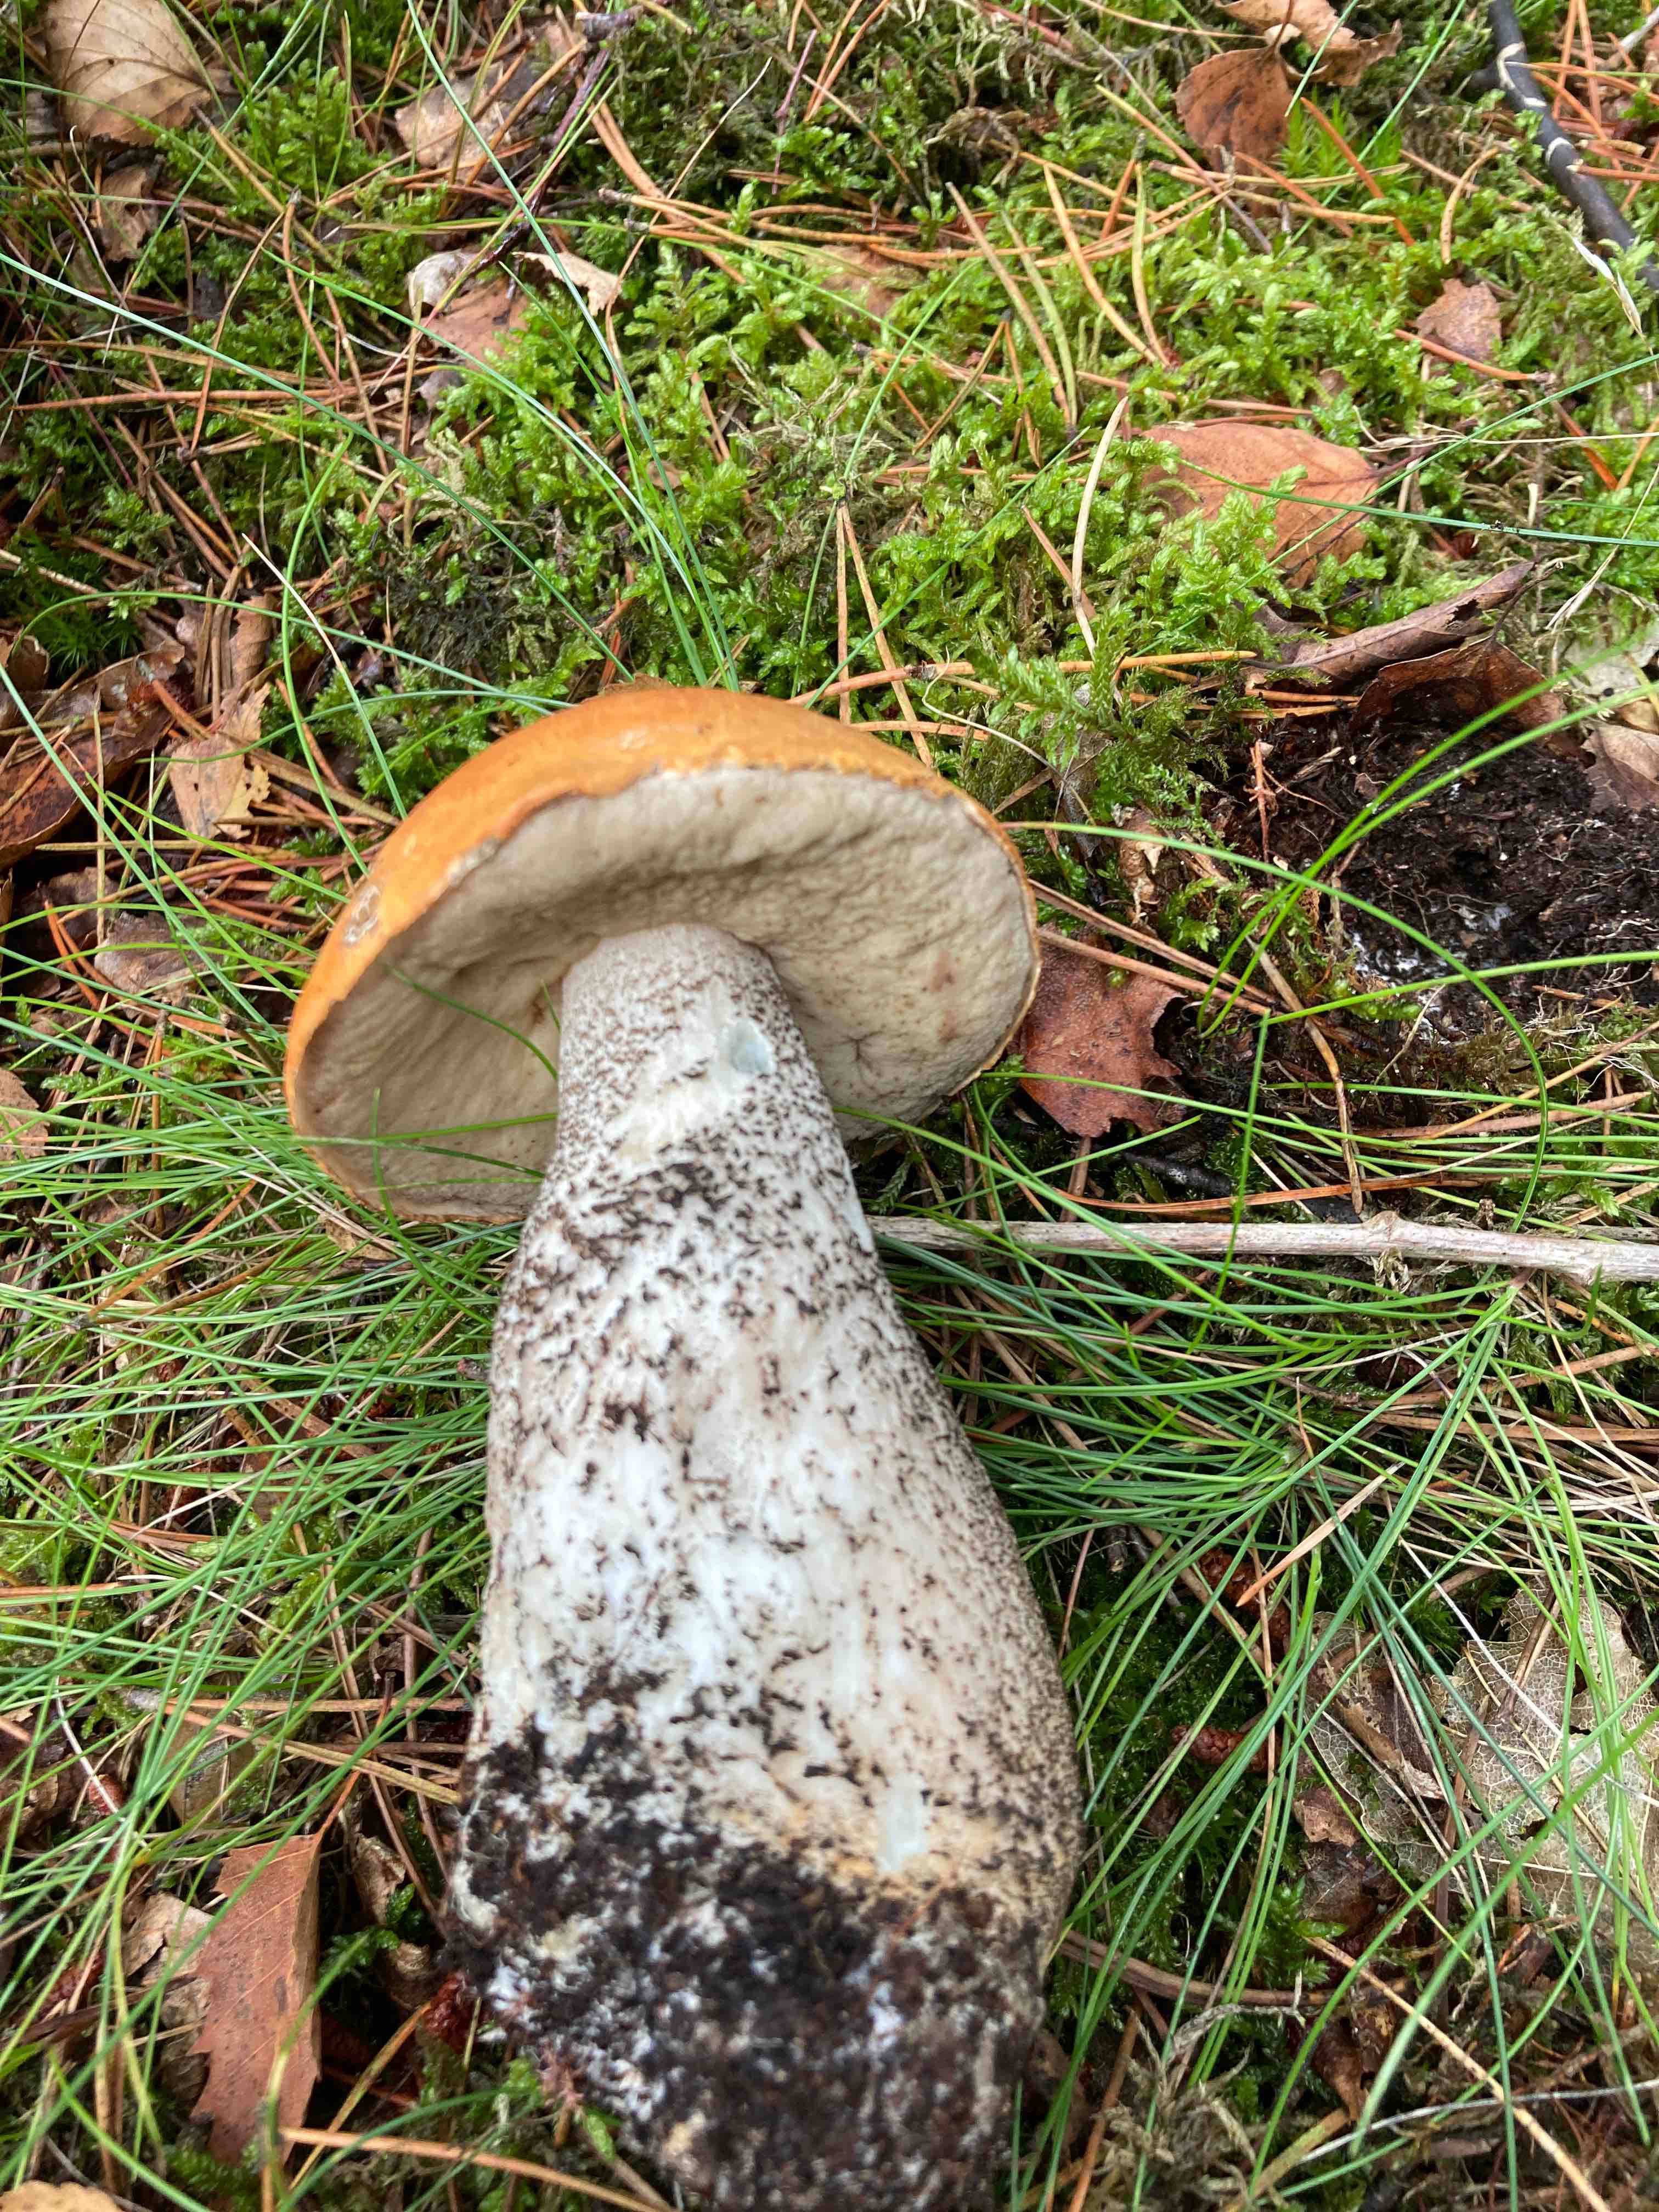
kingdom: Fungi
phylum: Basidiomycota
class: Agaricomycetes
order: Boletales
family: Boletaceae
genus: Leccinum
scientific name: Leccinum versipelle
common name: orange skælrørhat
